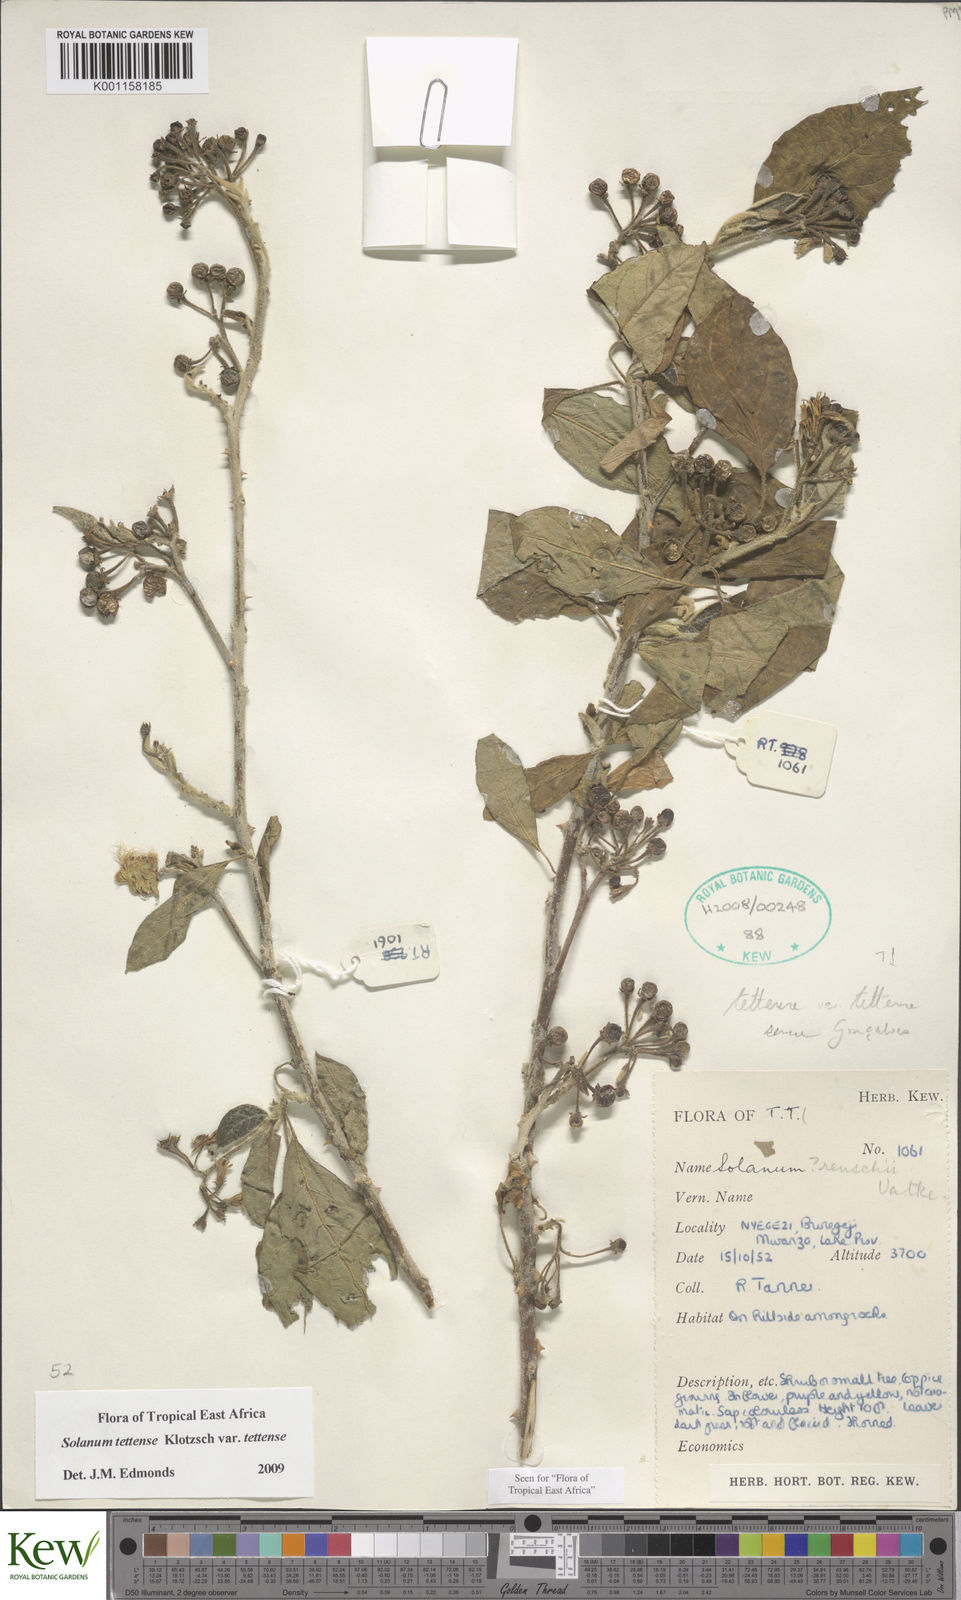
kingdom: Plantae
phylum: Tracheophyta
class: Magnoliopsida
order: Solanales
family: Solanaceae
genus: Solanum
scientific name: Solanum tettense
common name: Mozambique bitter apple
